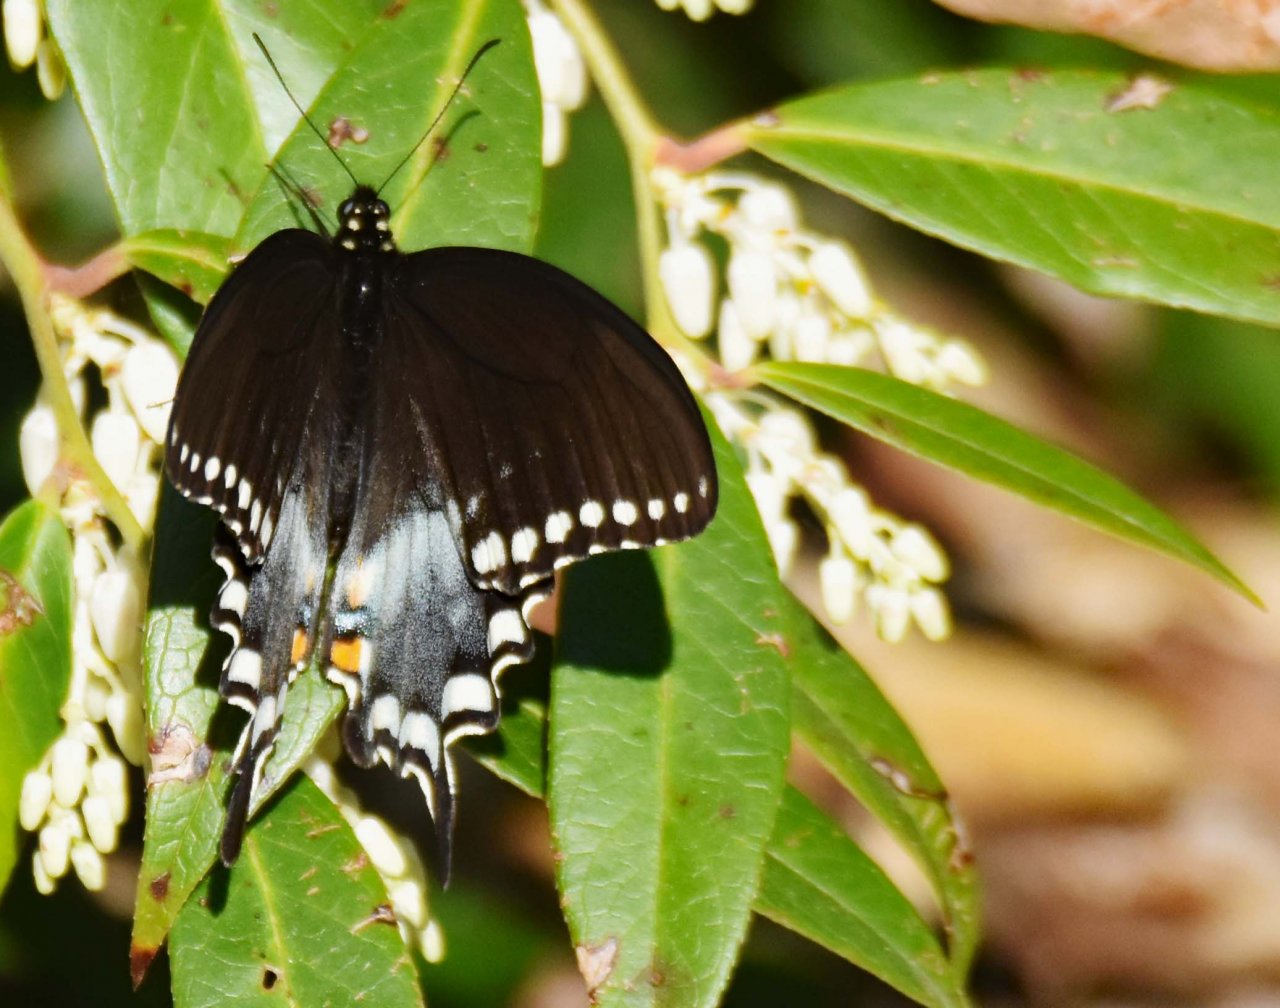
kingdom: Animalia
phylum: Arthropoda
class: Insecta
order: Lepidoptera
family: Papilionidae
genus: Papilio
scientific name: Papilio
